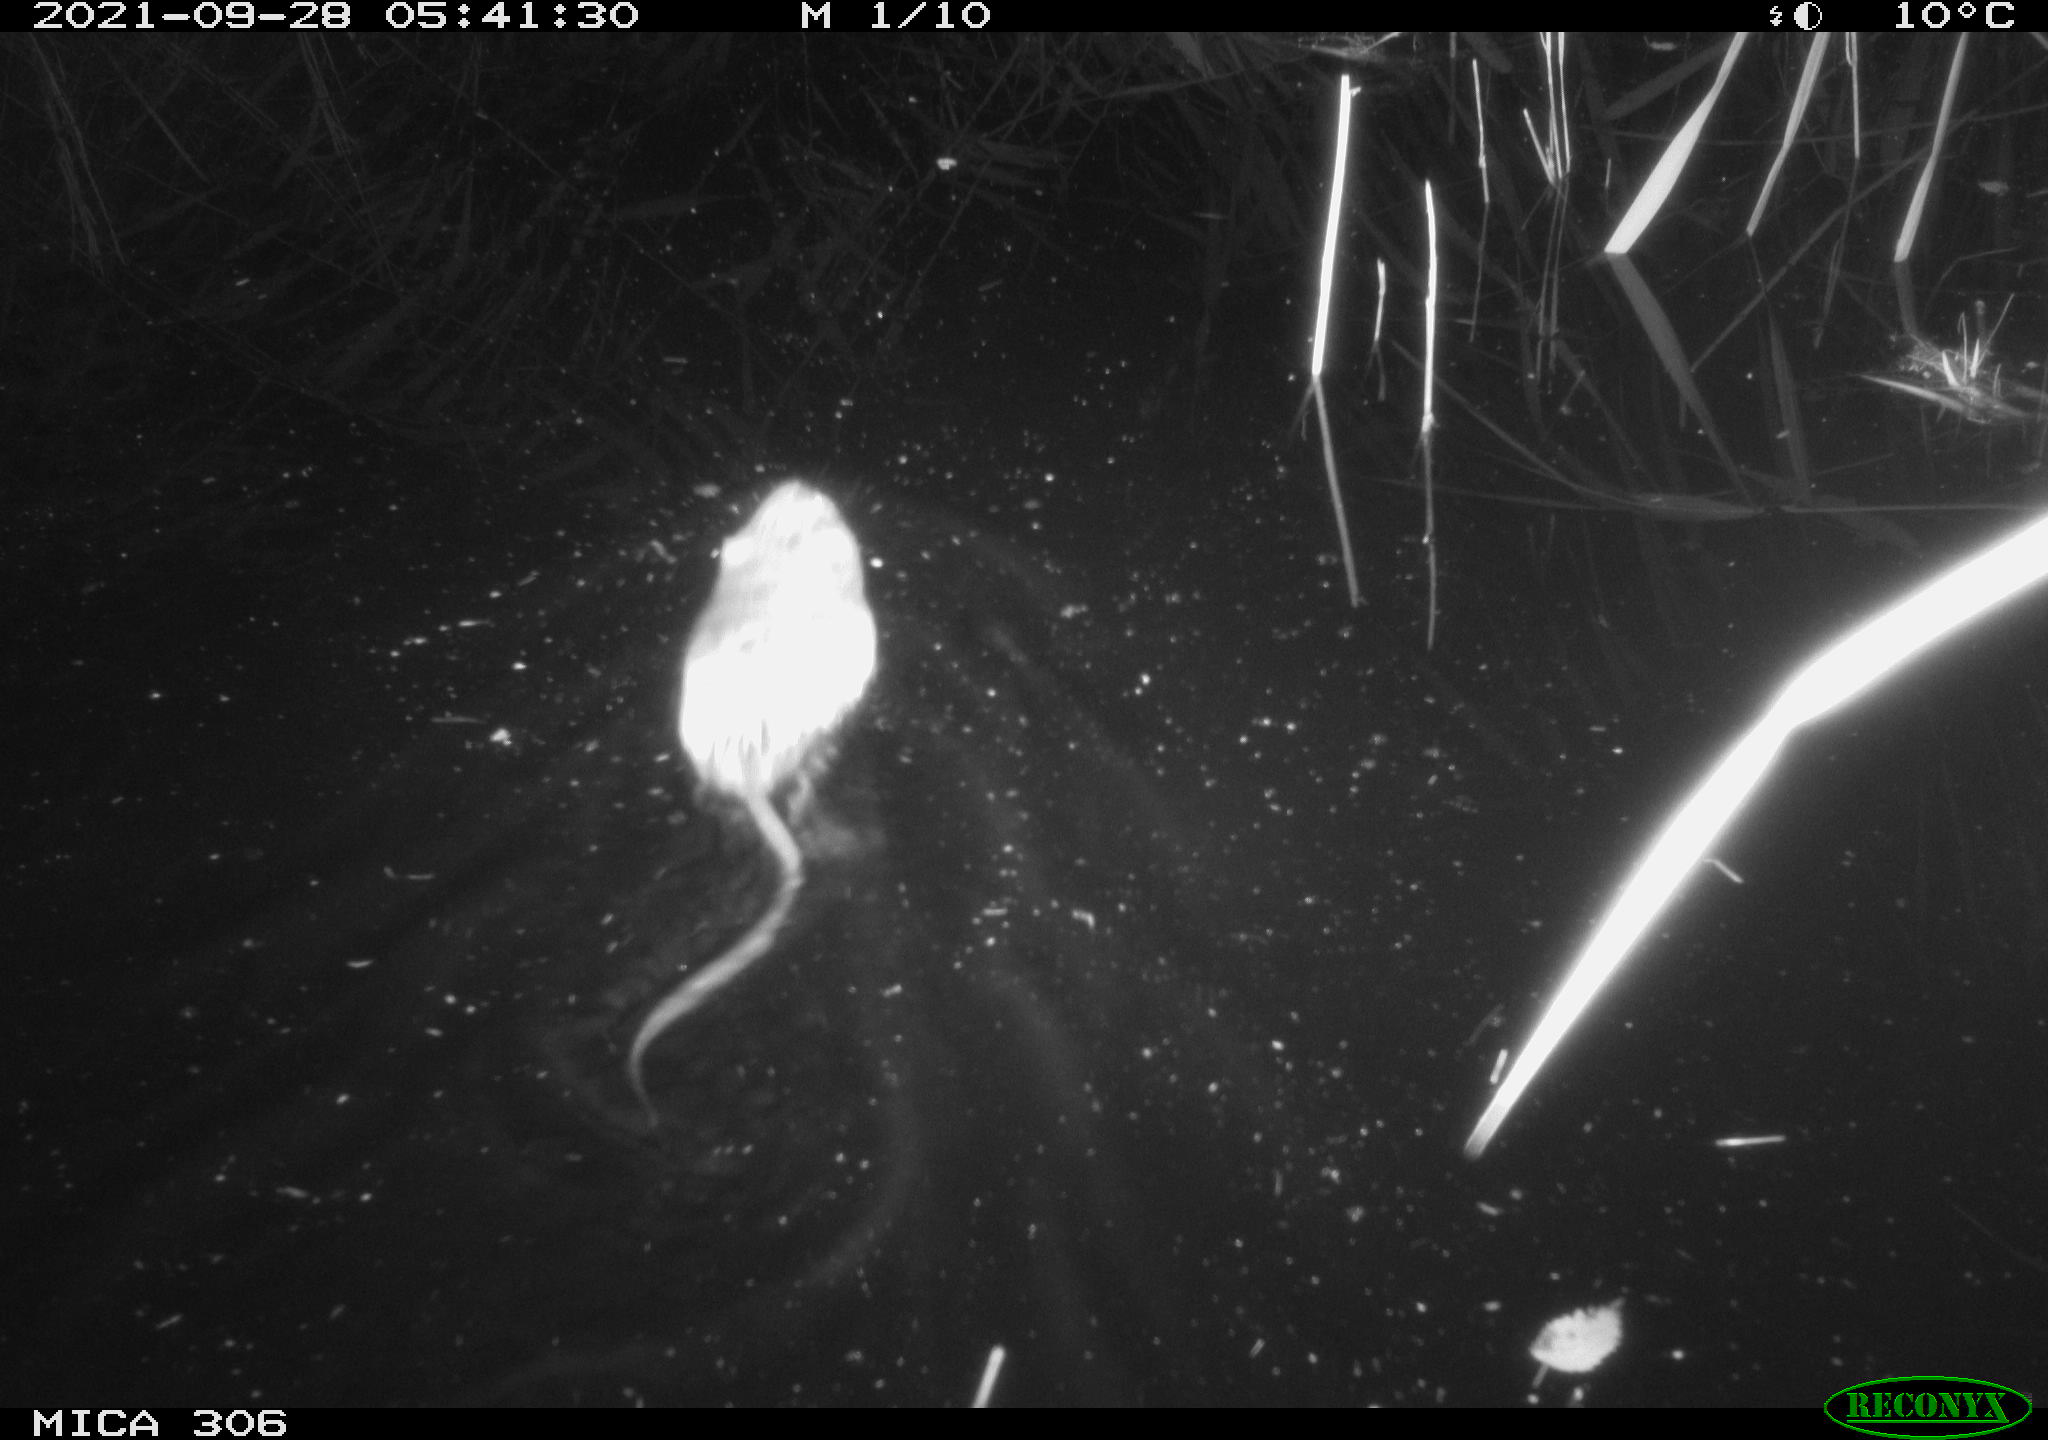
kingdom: Animalia
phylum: Chordata
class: Mammalia
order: Rodentia
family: Cricetidae
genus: Ondatra
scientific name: Ondatra zibethicus
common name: Muskrat
